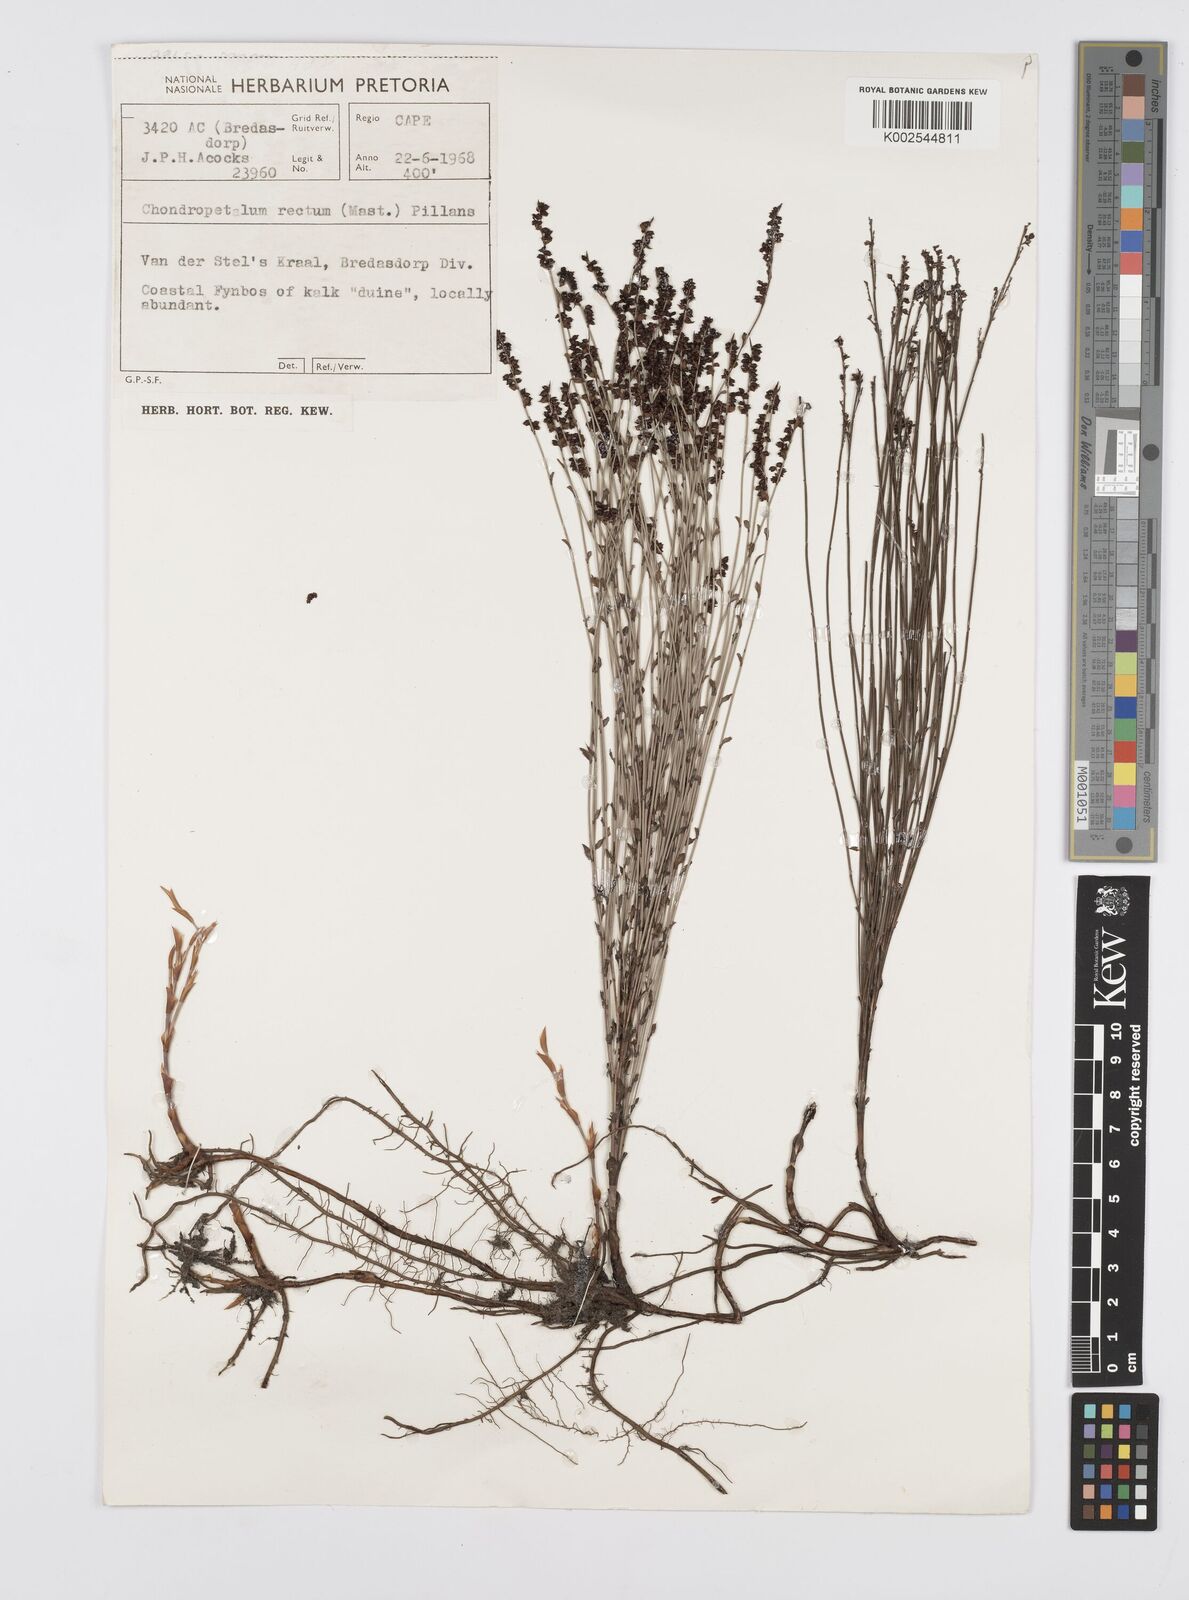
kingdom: Plantae
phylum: Tracheophyta
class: Liliopsida
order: Poales
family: Restionaceae
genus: Elegia
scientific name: Elegia microcarpa
